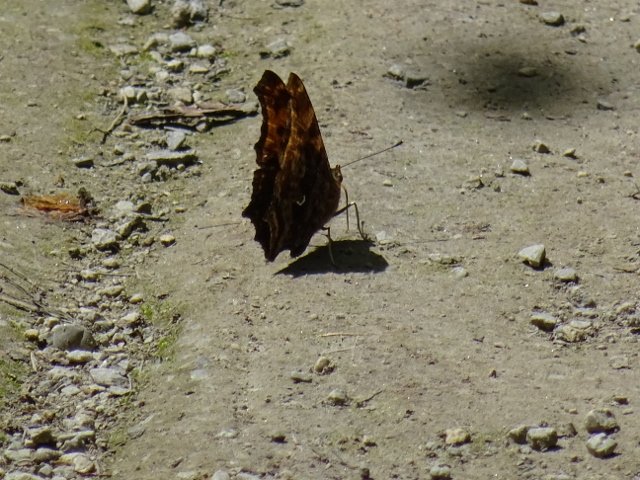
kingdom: Animalia
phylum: Arthropoda
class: Insecta
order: Lepidoptera
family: Nymphalidae
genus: Polygonia
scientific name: Polygonia comma
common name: Eastern Comma
